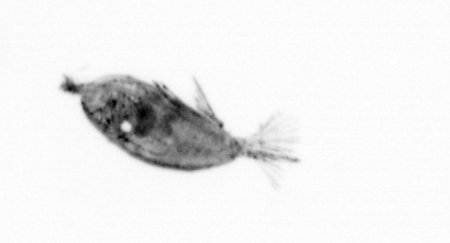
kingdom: Animalia
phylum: Arthropoda
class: Maxillopoda
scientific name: Maxillopoda
